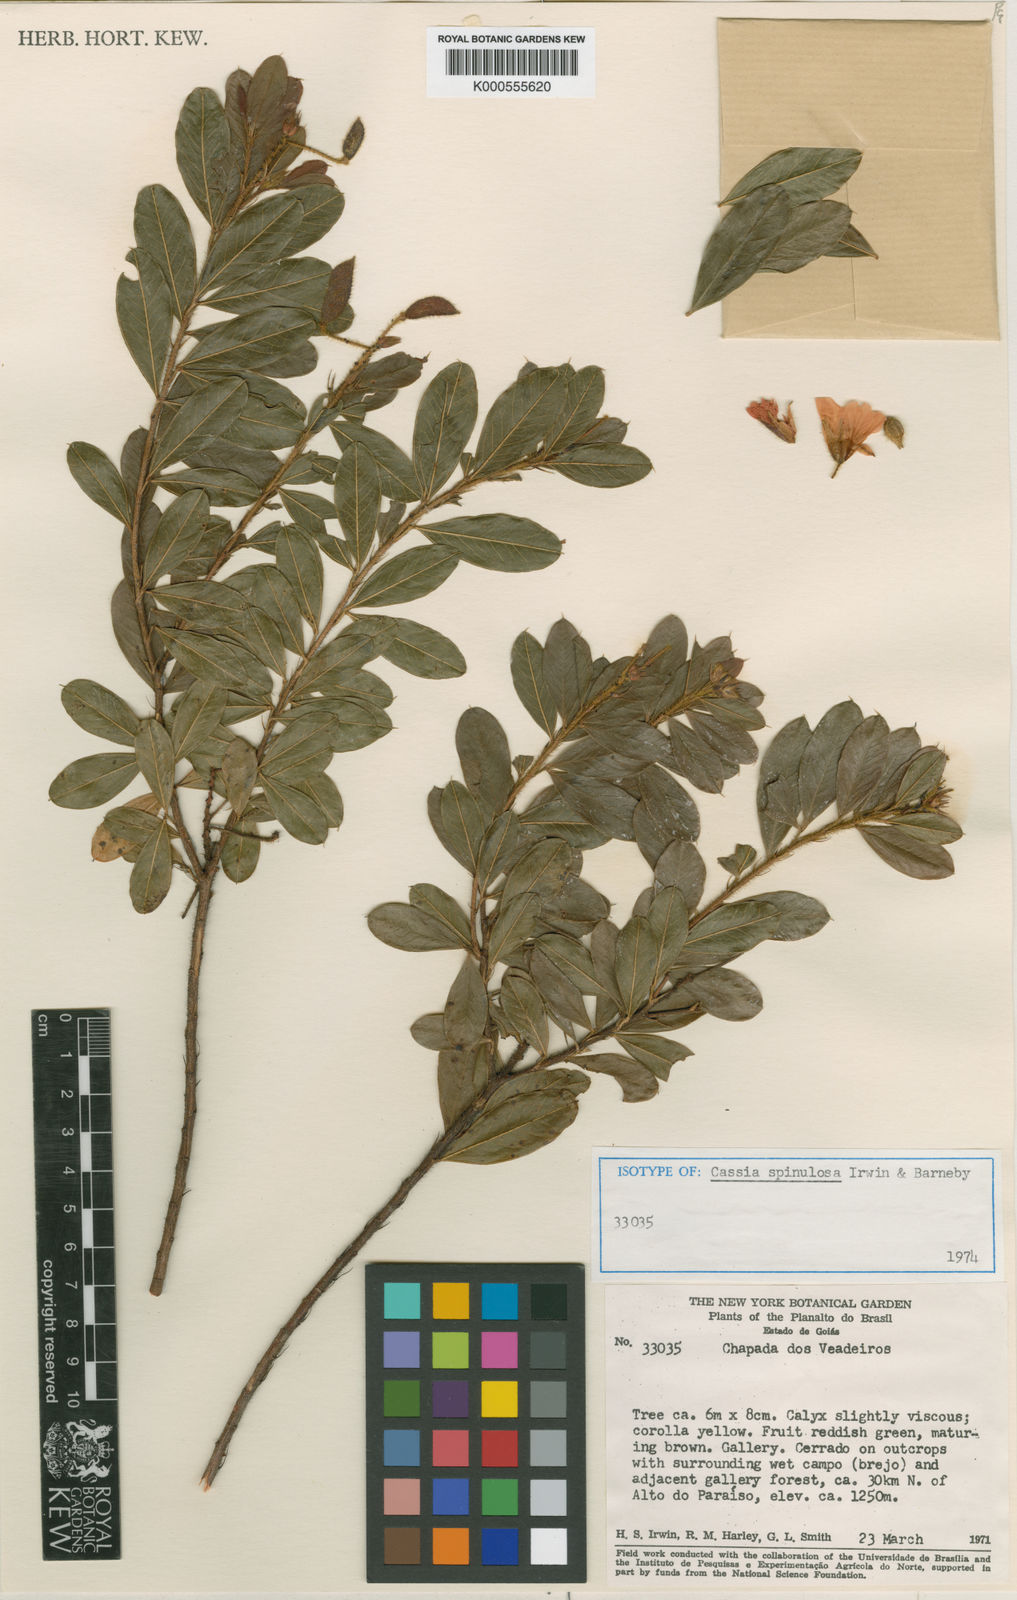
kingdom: Plantae
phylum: Tracheophyta
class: Magnoliopsida
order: Fabales
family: Fabaceae
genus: Chamaecrista
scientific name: Chamaecrista spinulosa
